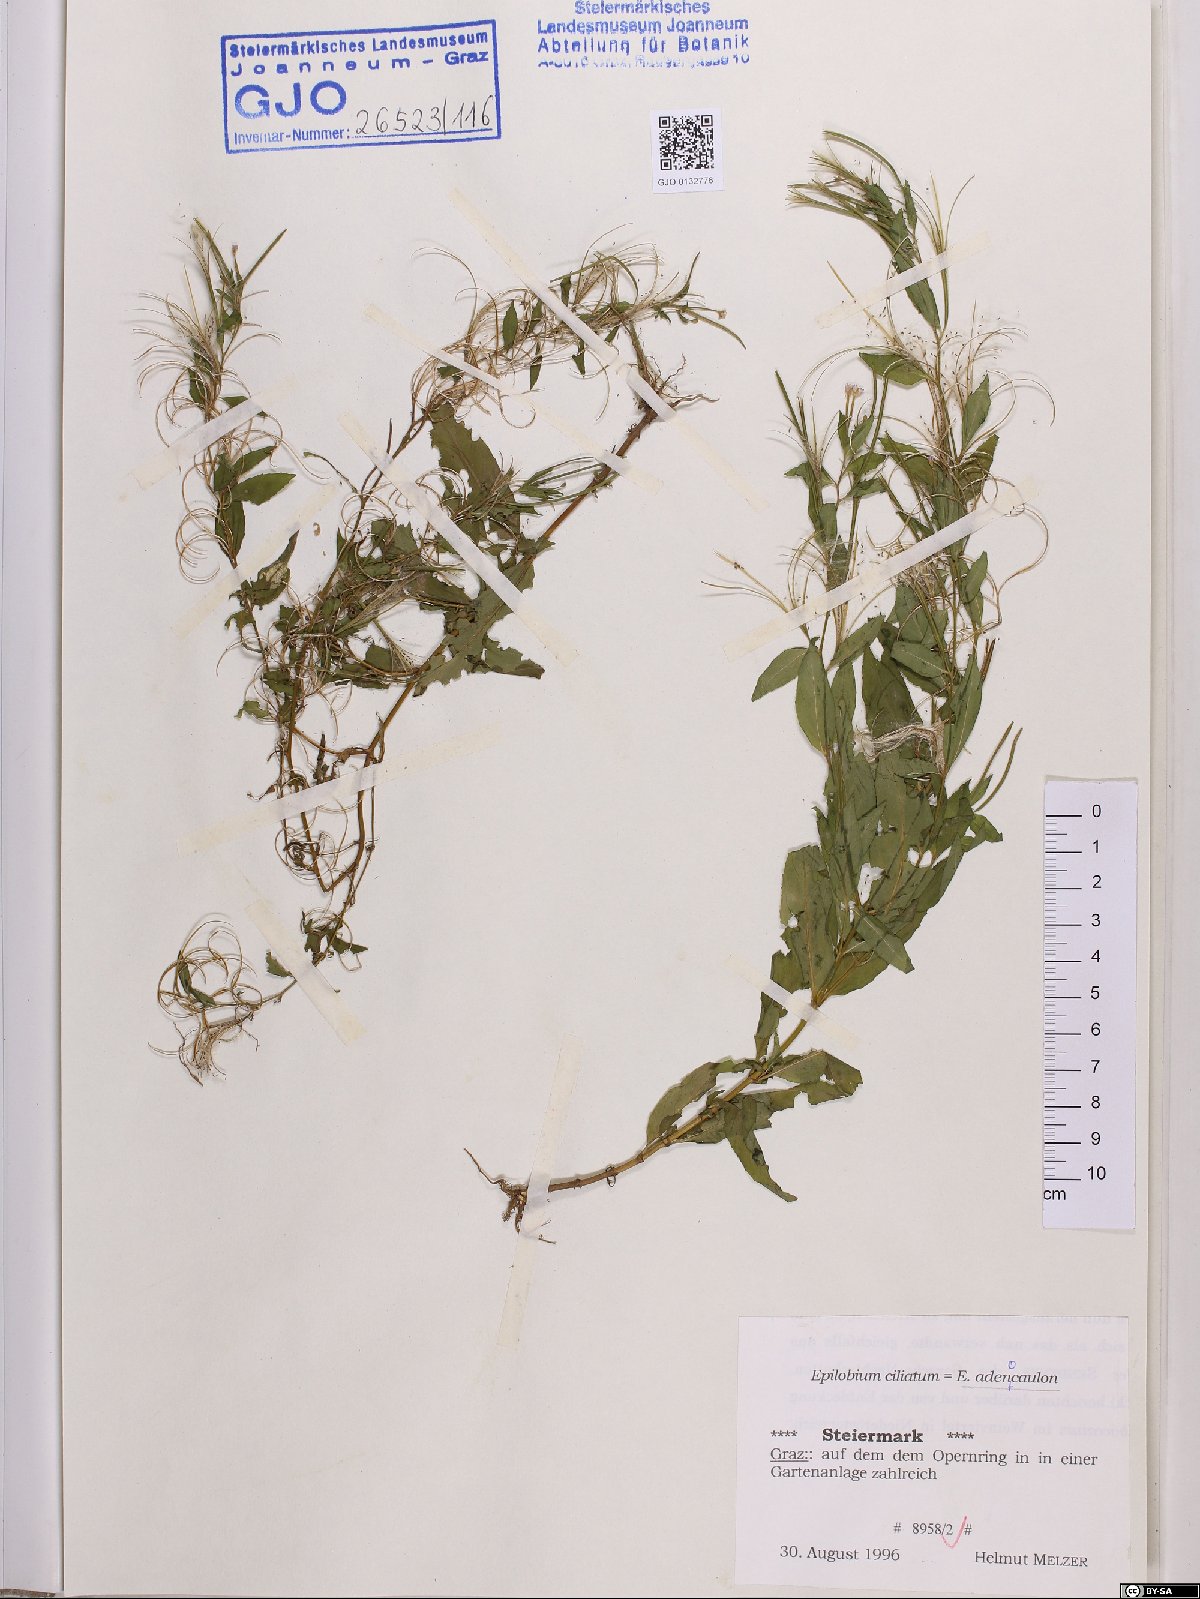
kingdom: Plantae
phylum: Tracheophyta
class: Magnoliopsida
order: Myrtales
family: Onagraceae
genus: Epilobium
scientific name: Epilobium ciliatum
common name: American willowherb
